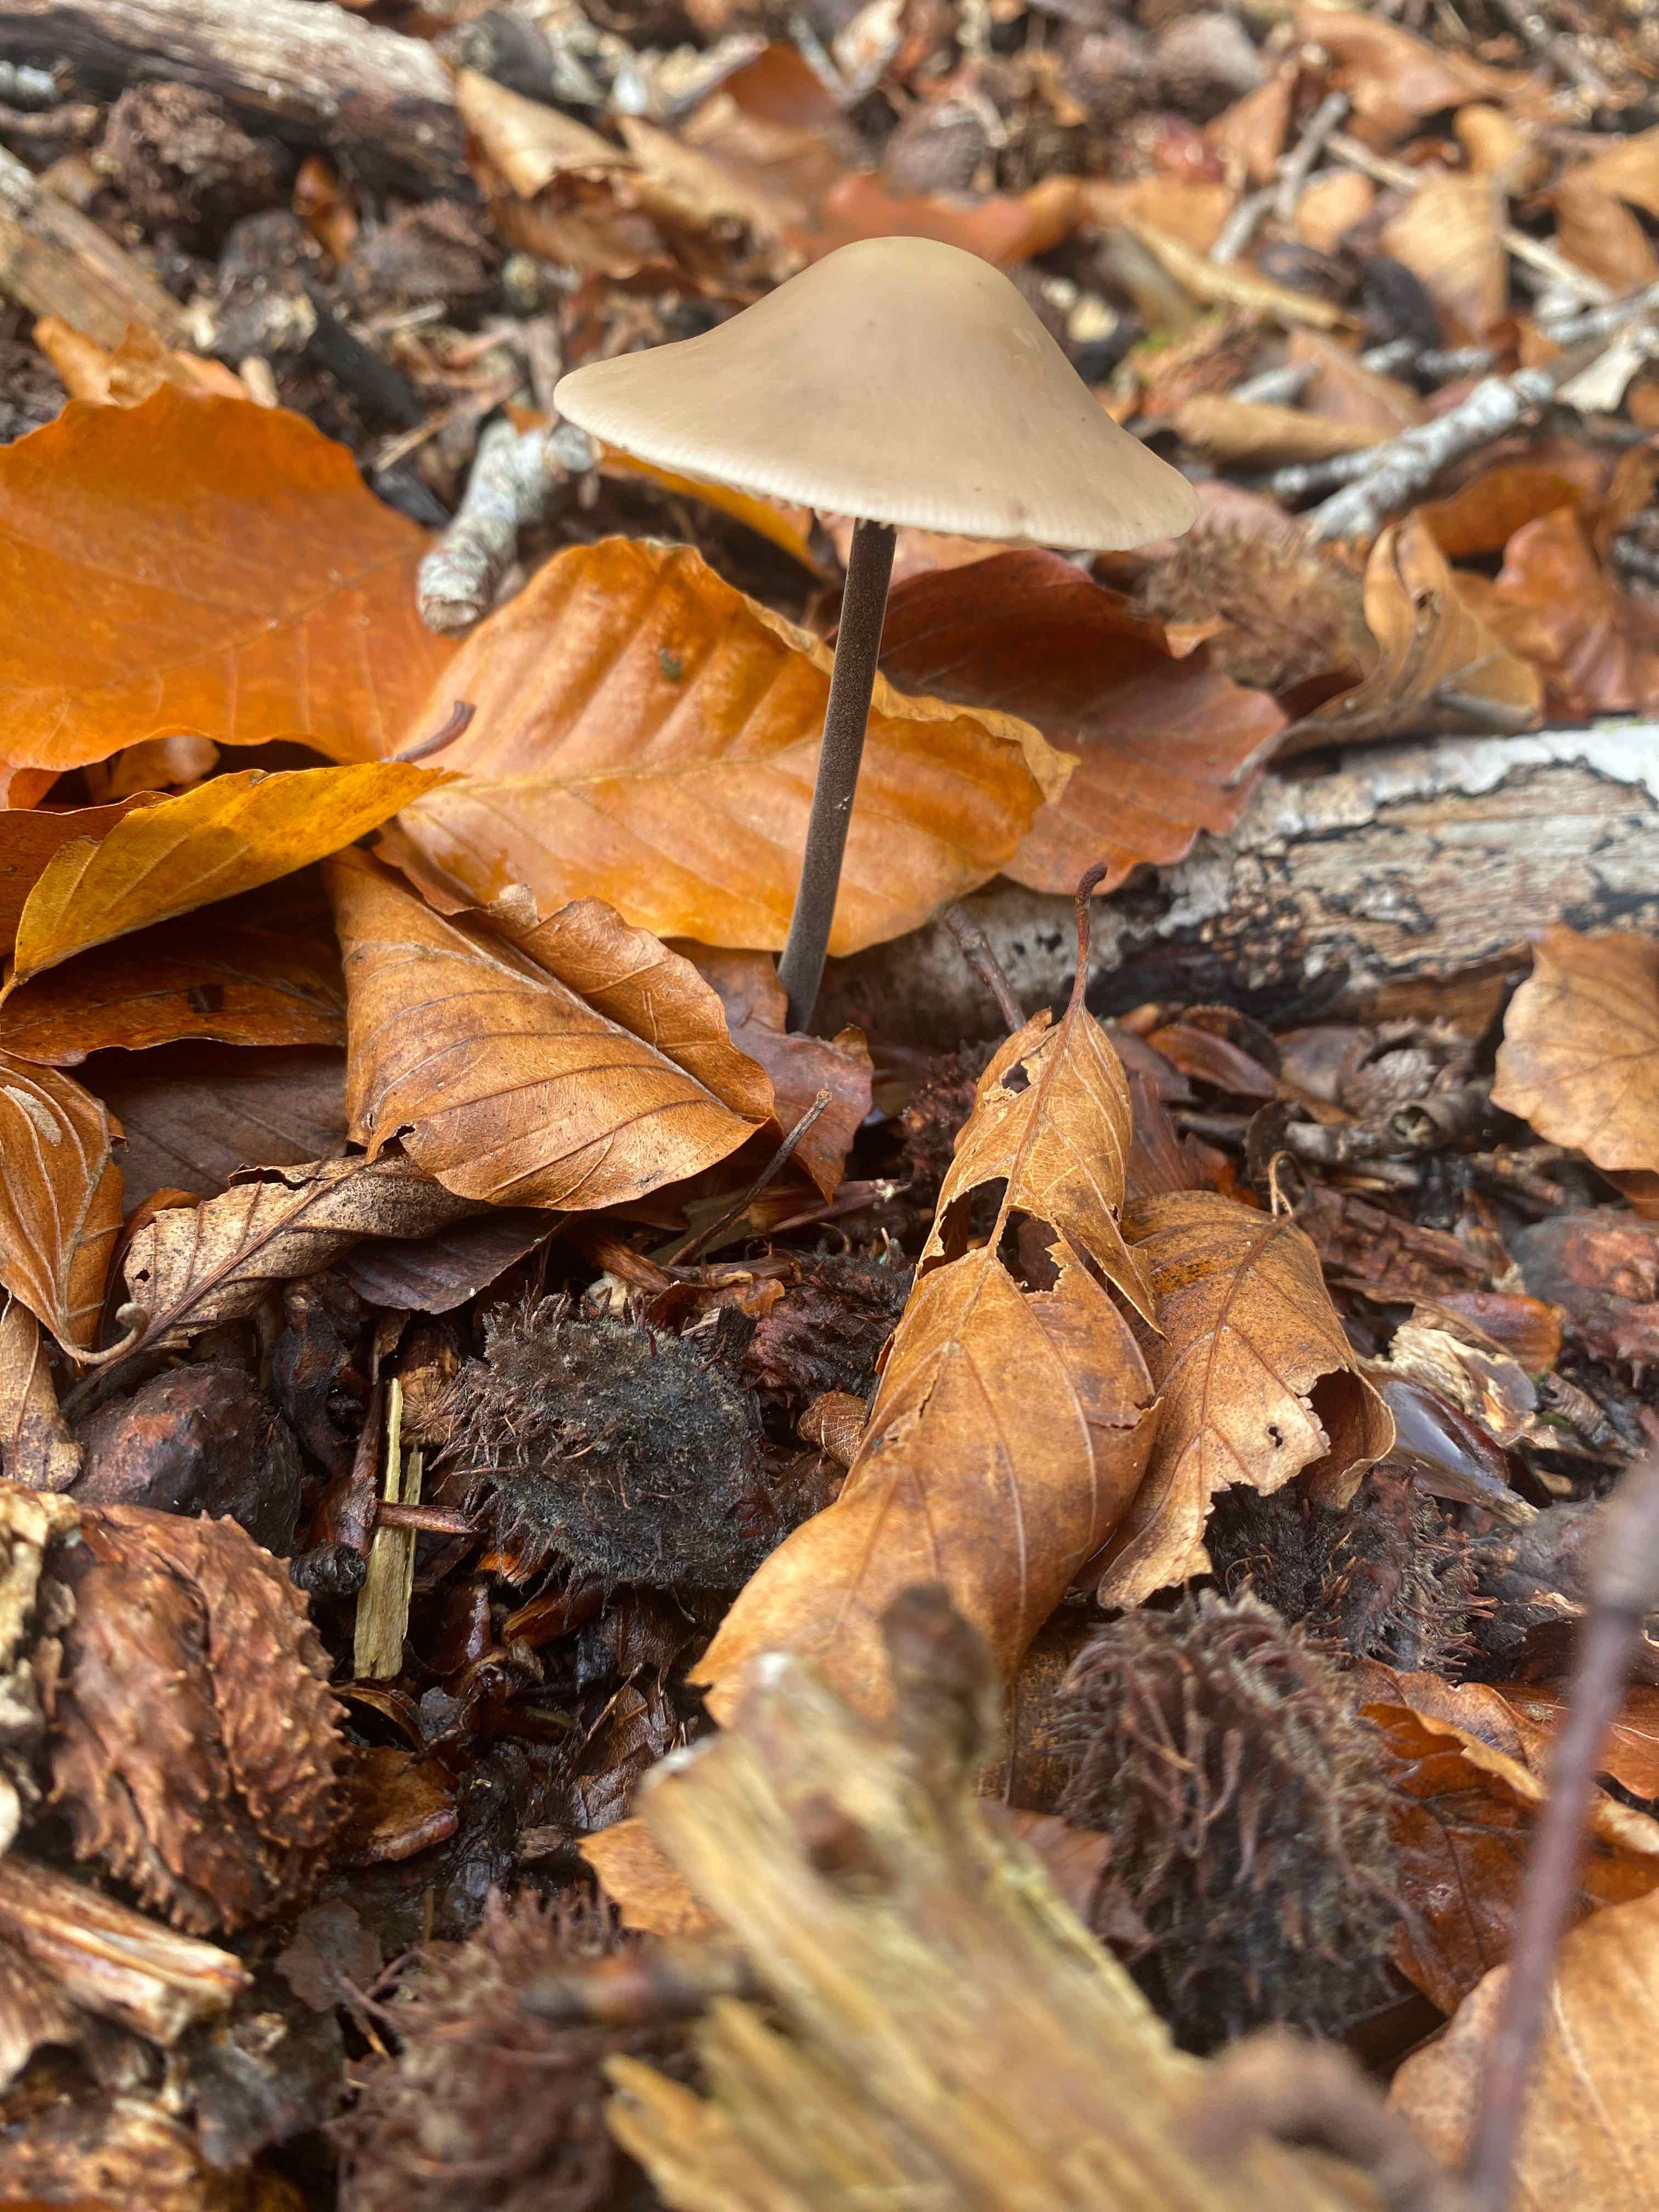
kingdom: Fungi
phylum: Basidiomycota
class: Agaricomycetes
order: Agaricales
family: Omphalotaceae
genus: Mycetinis
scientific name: Mycetinis alliaceus
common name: stor løghat
